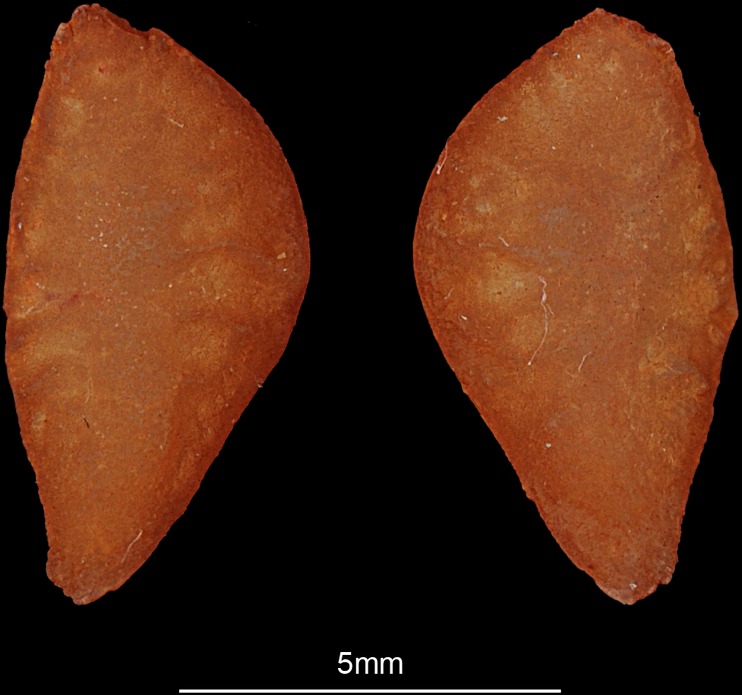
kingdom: Animalia
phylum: Chordata
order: Perciformes
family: Sillaginidae
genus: Sillago
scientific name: Sillago sihama
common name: Silver sillago
